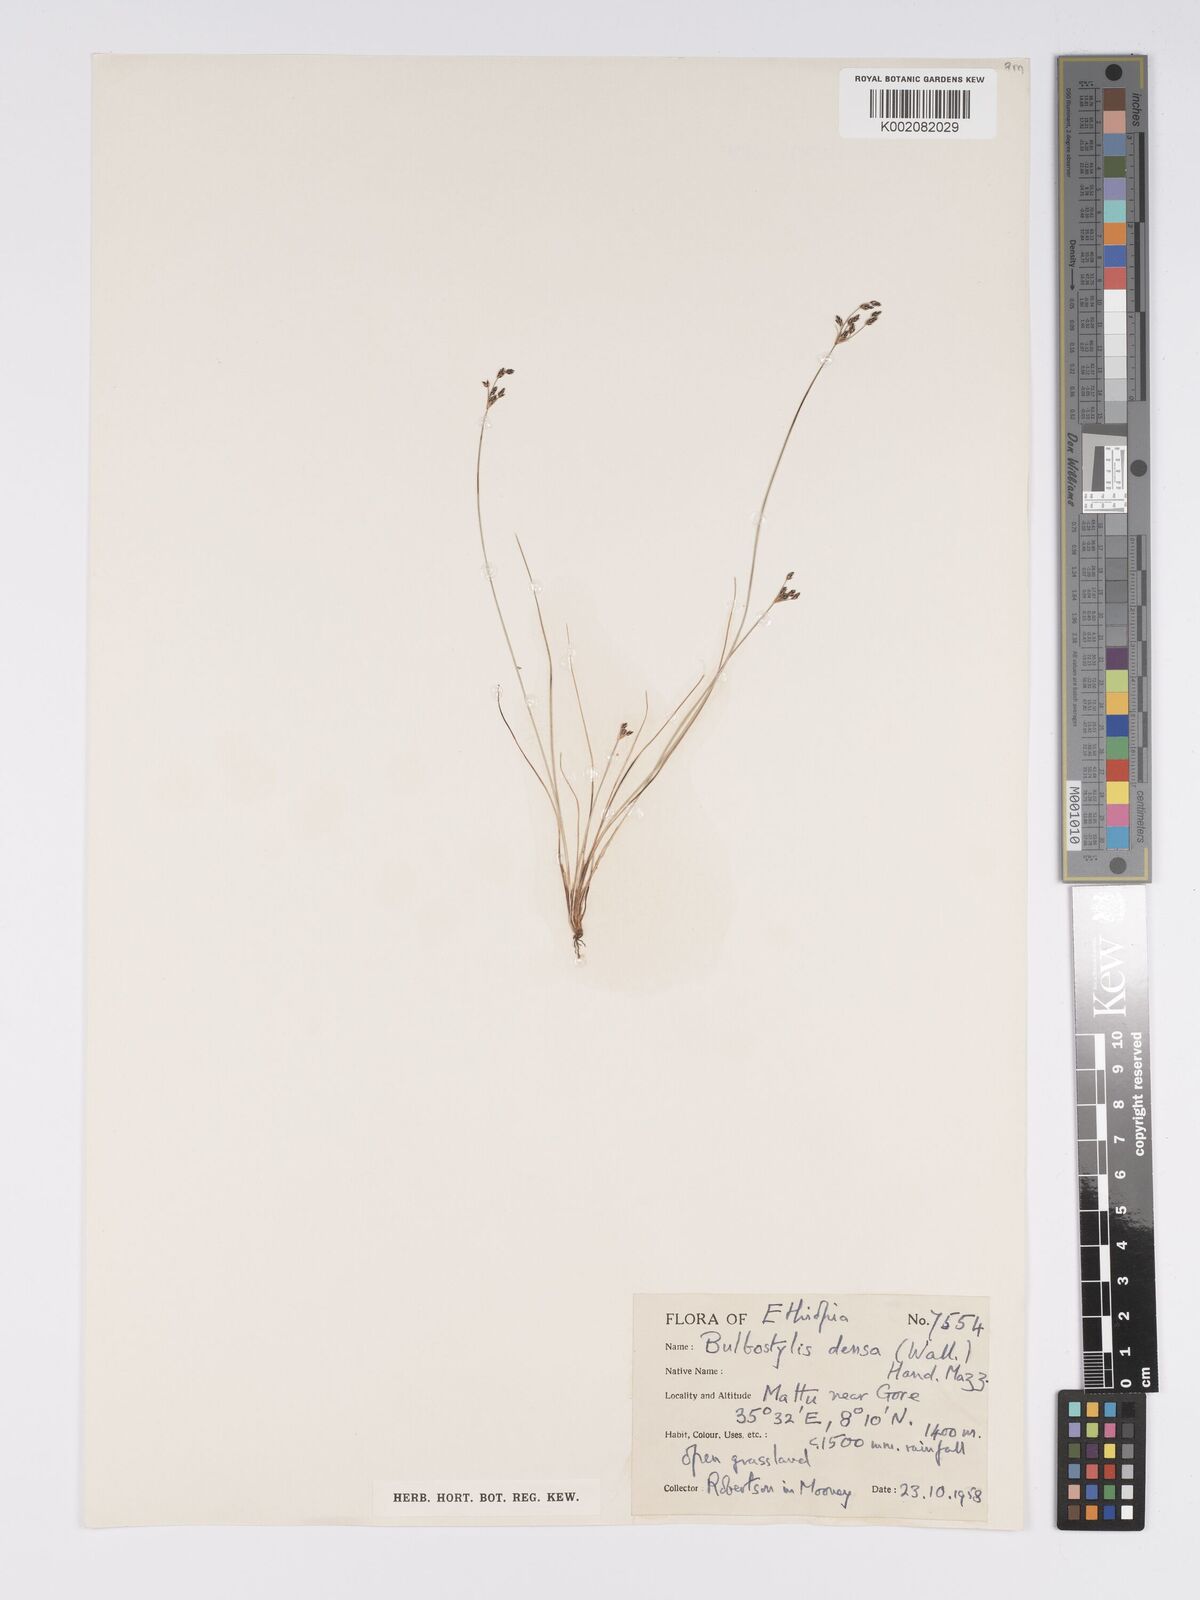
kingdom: Plantae
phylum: Tracheophyta
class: Liliopsida
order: Poales
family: Cyperaceae
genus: Bulbostylis
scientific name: Bulbostylis densa
